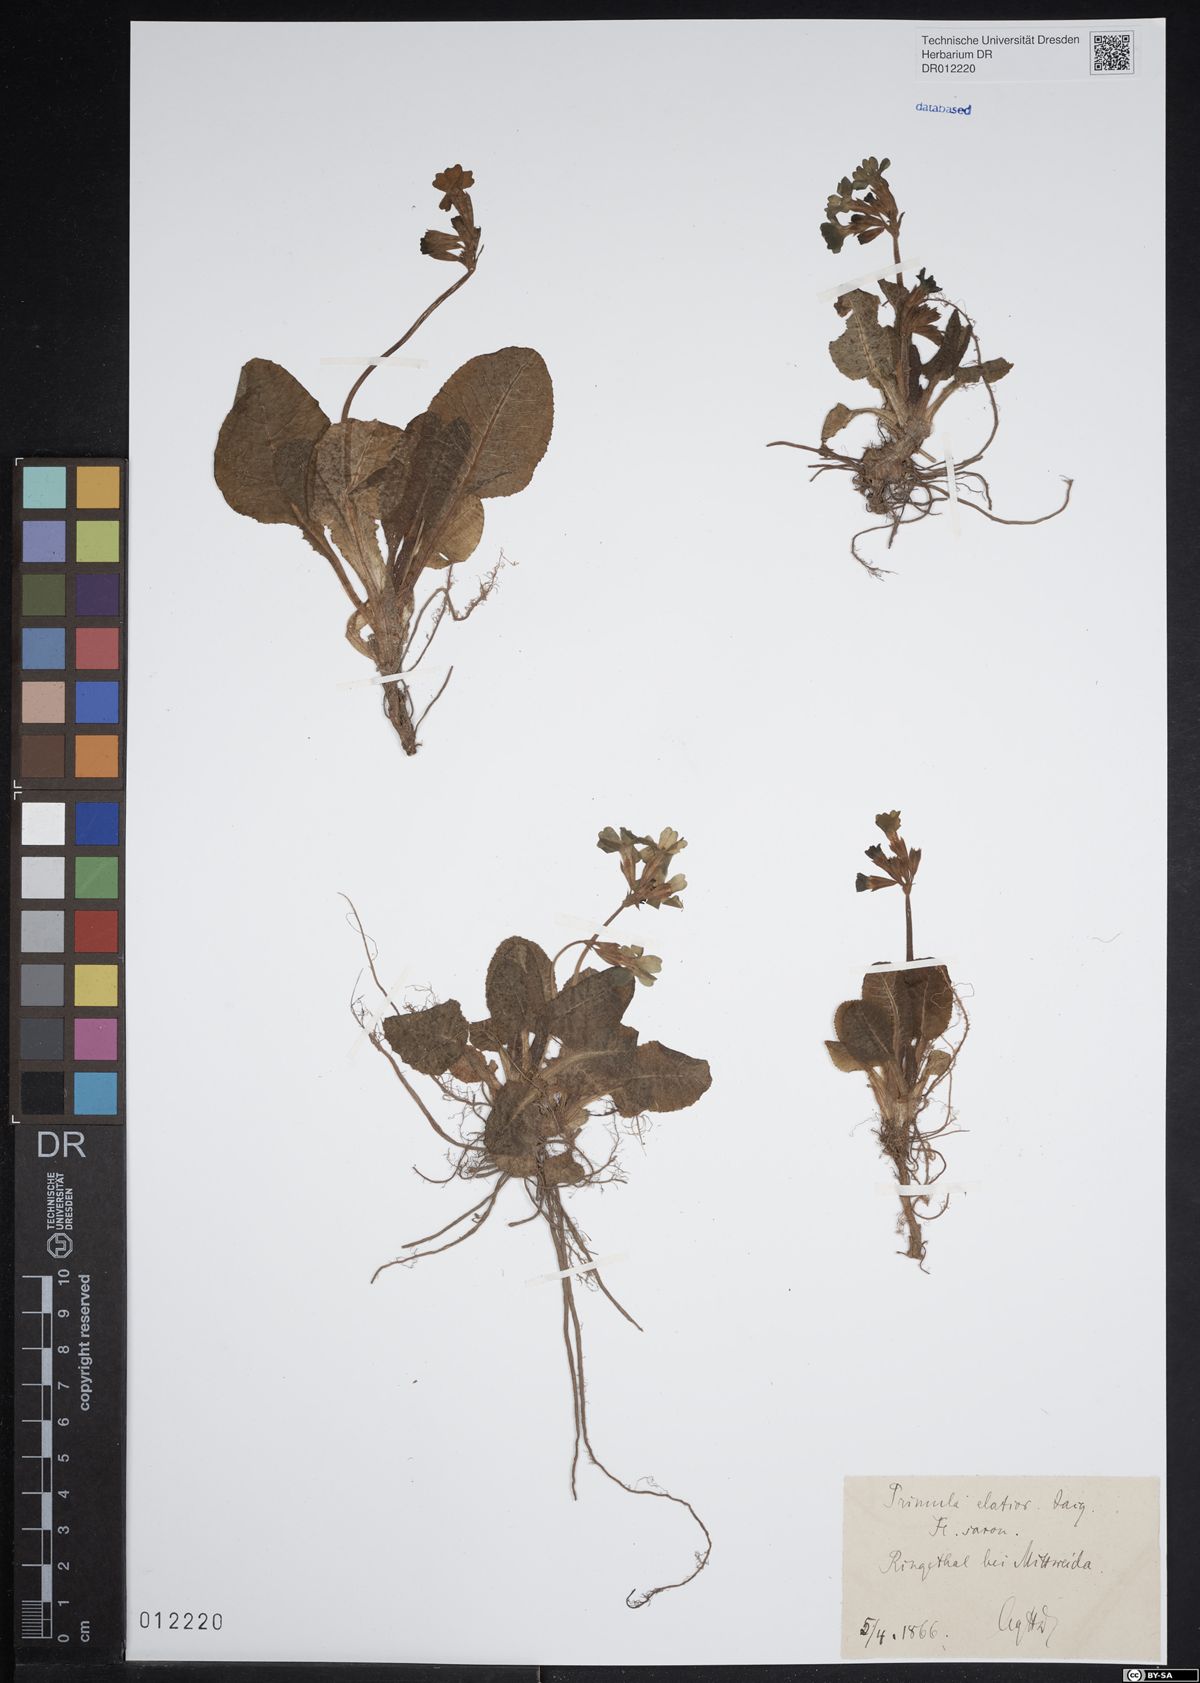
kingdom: Plantae
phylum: Tracheophyta
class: Magnoliopsida
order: Ericales
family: Primulaceae
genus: Primula
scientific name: Primula elatior
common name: Oxlip
